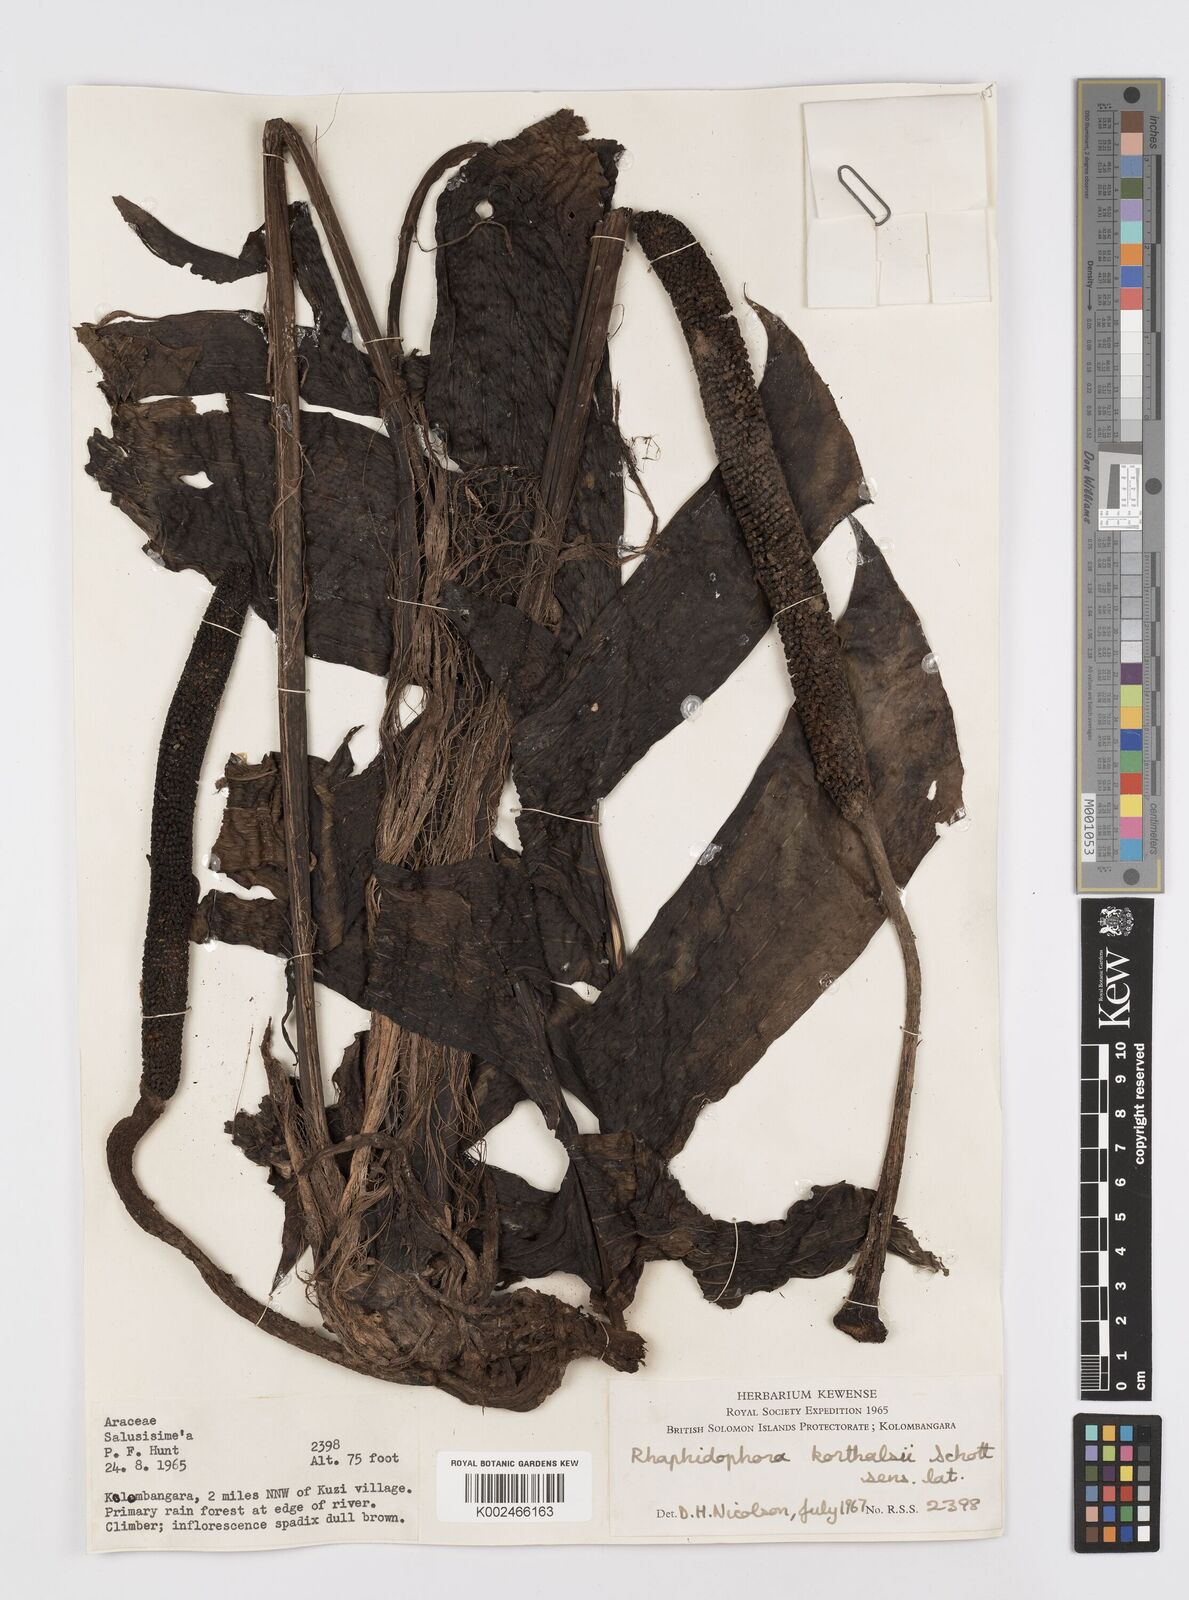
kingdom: Plantae
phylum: Tracheophyta
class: Liliopsida
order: Alismatales
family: Araceae
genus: Rhaphidophora
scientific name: Rhaphidophora korthalsii
